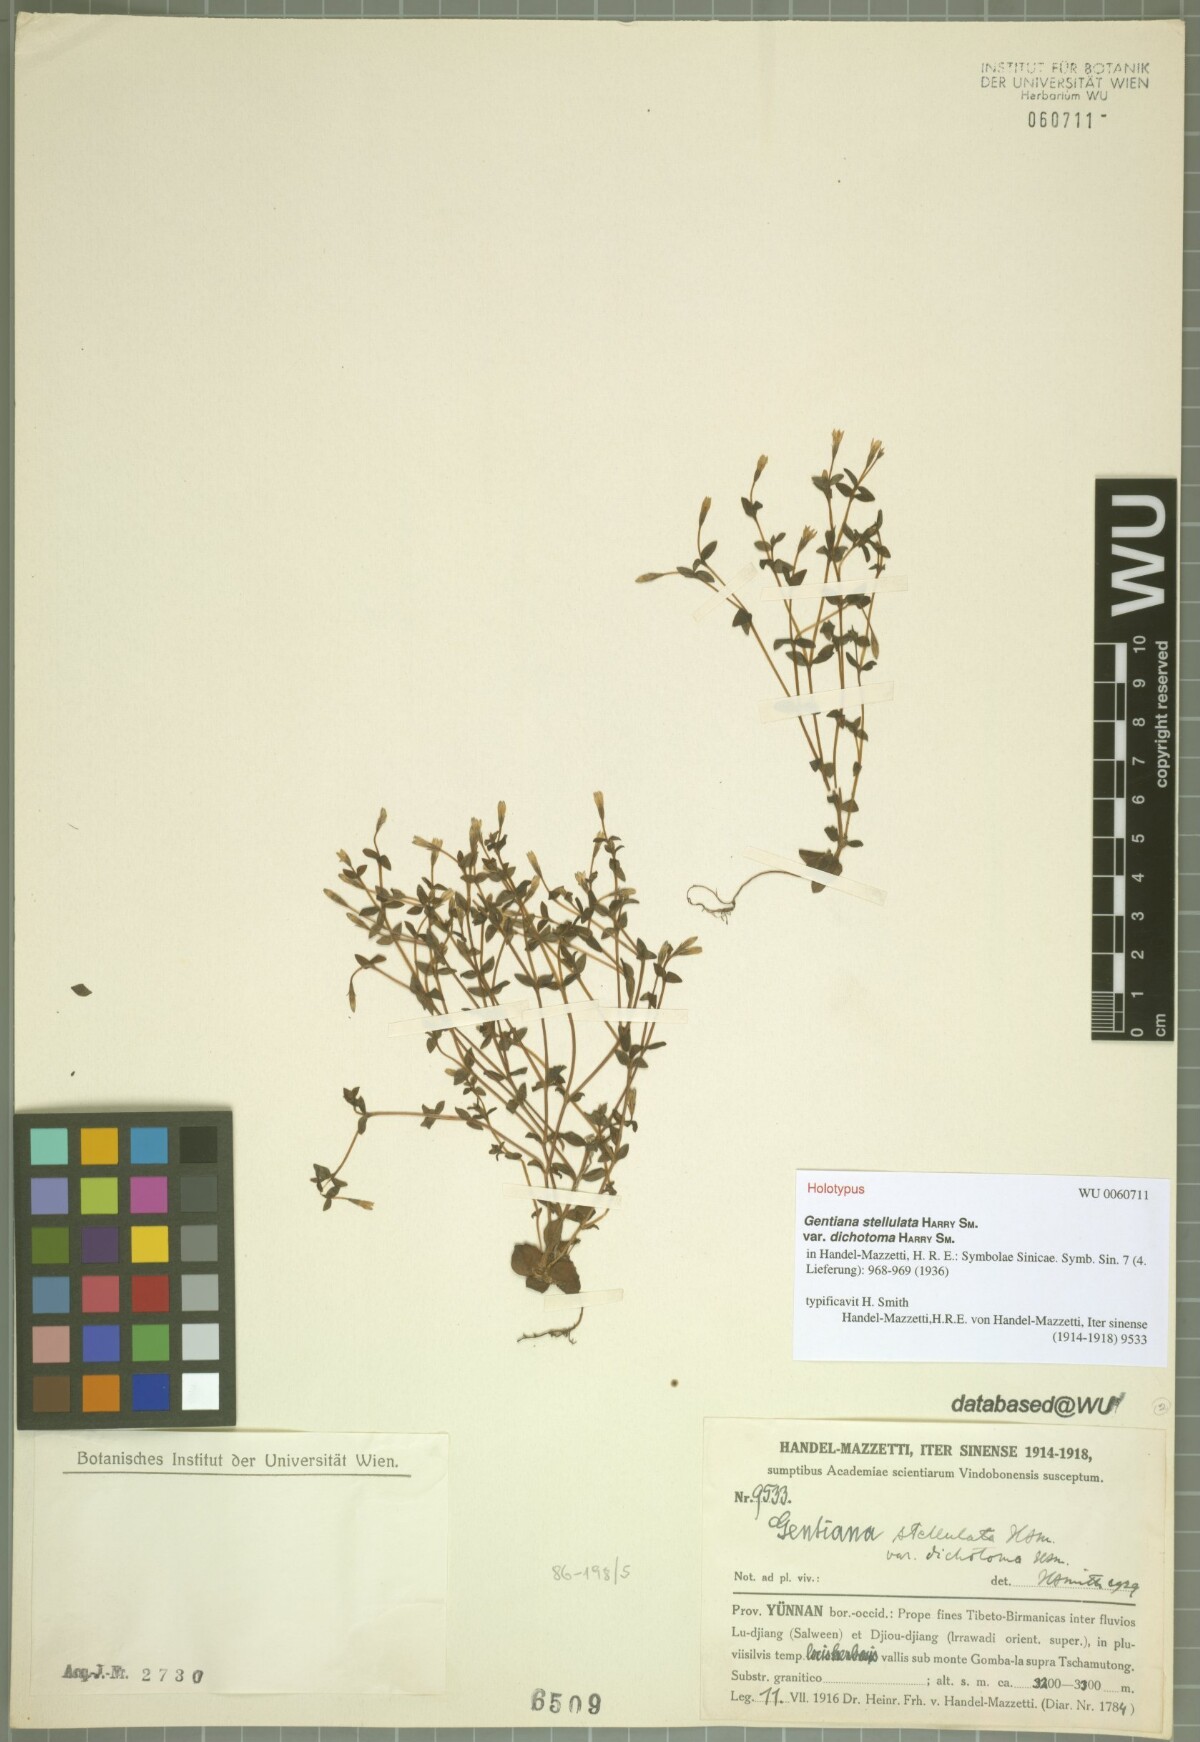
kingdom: Plantae
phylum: Tracheophyta
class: Magnoliopsida
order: Gentianales
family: Gentianaceae
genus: Gentiana
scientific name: Gentiana stellulata
